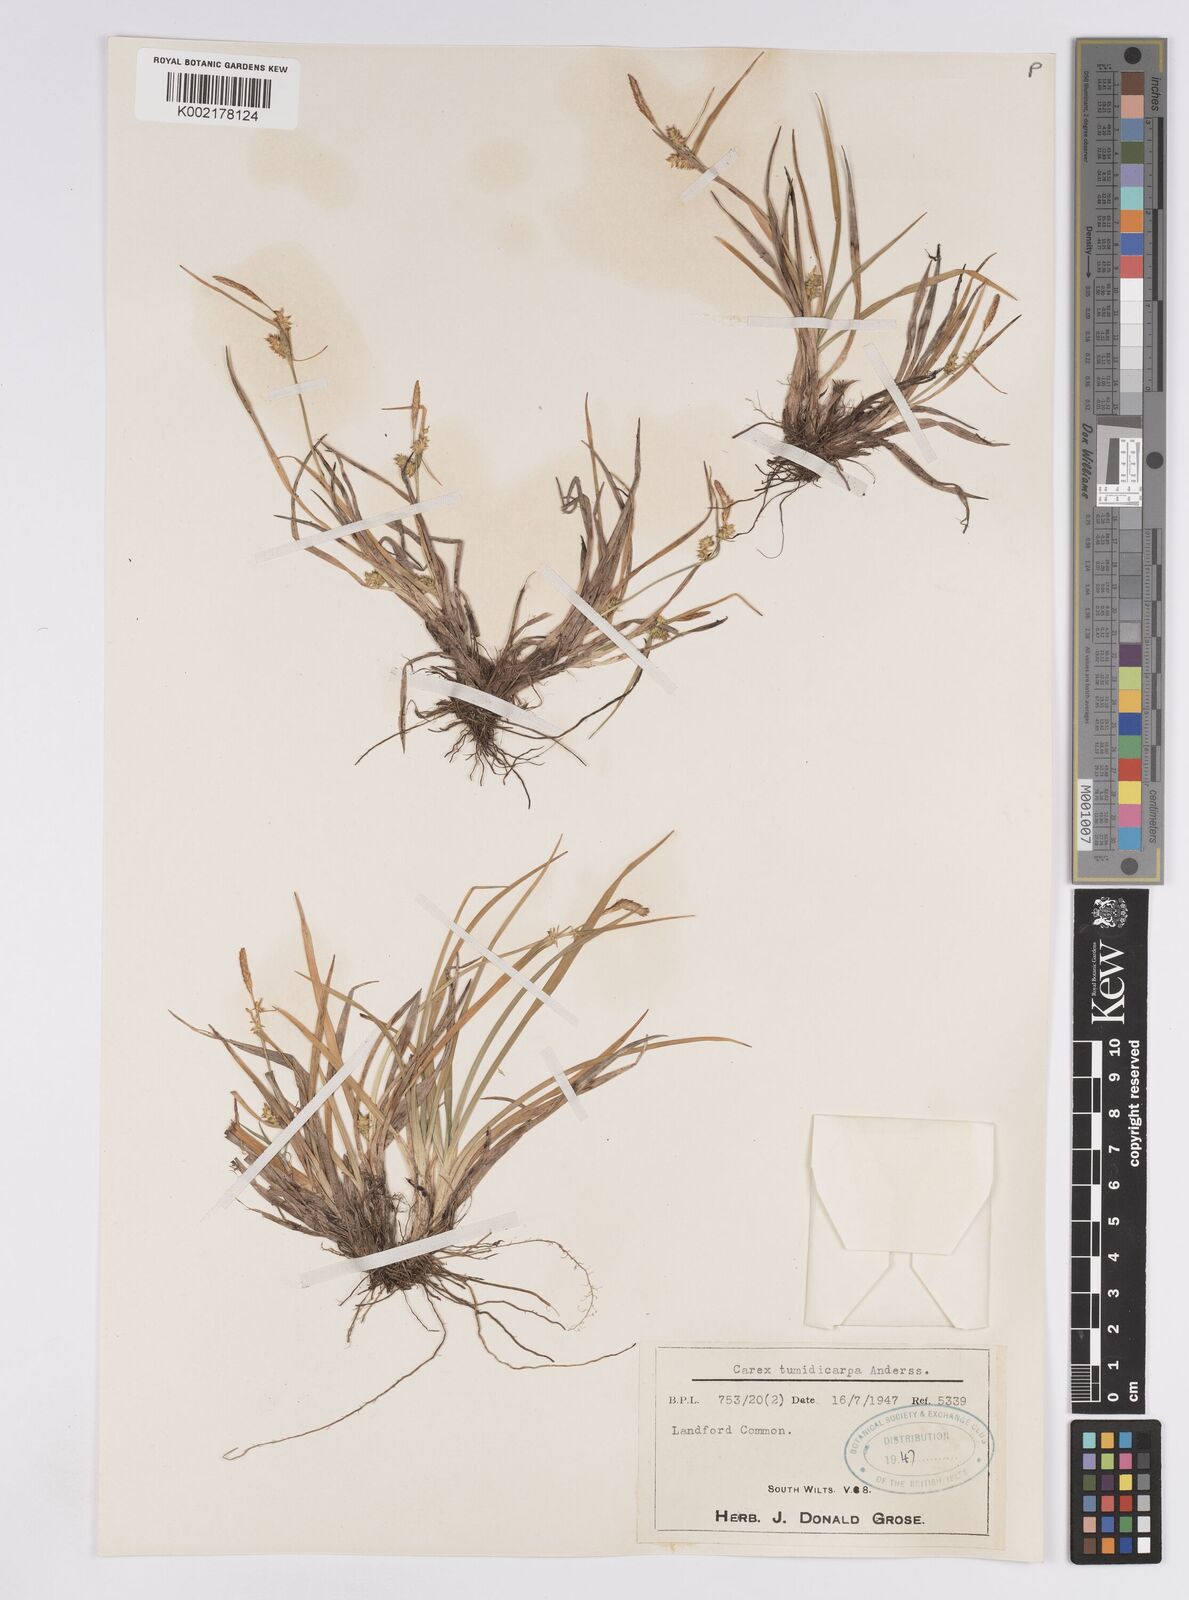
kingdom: Plantae
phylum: Tracheophyta
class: Liliopsida
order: Poales
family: Cyperaceae
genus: Carex
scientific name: Carex demissa
